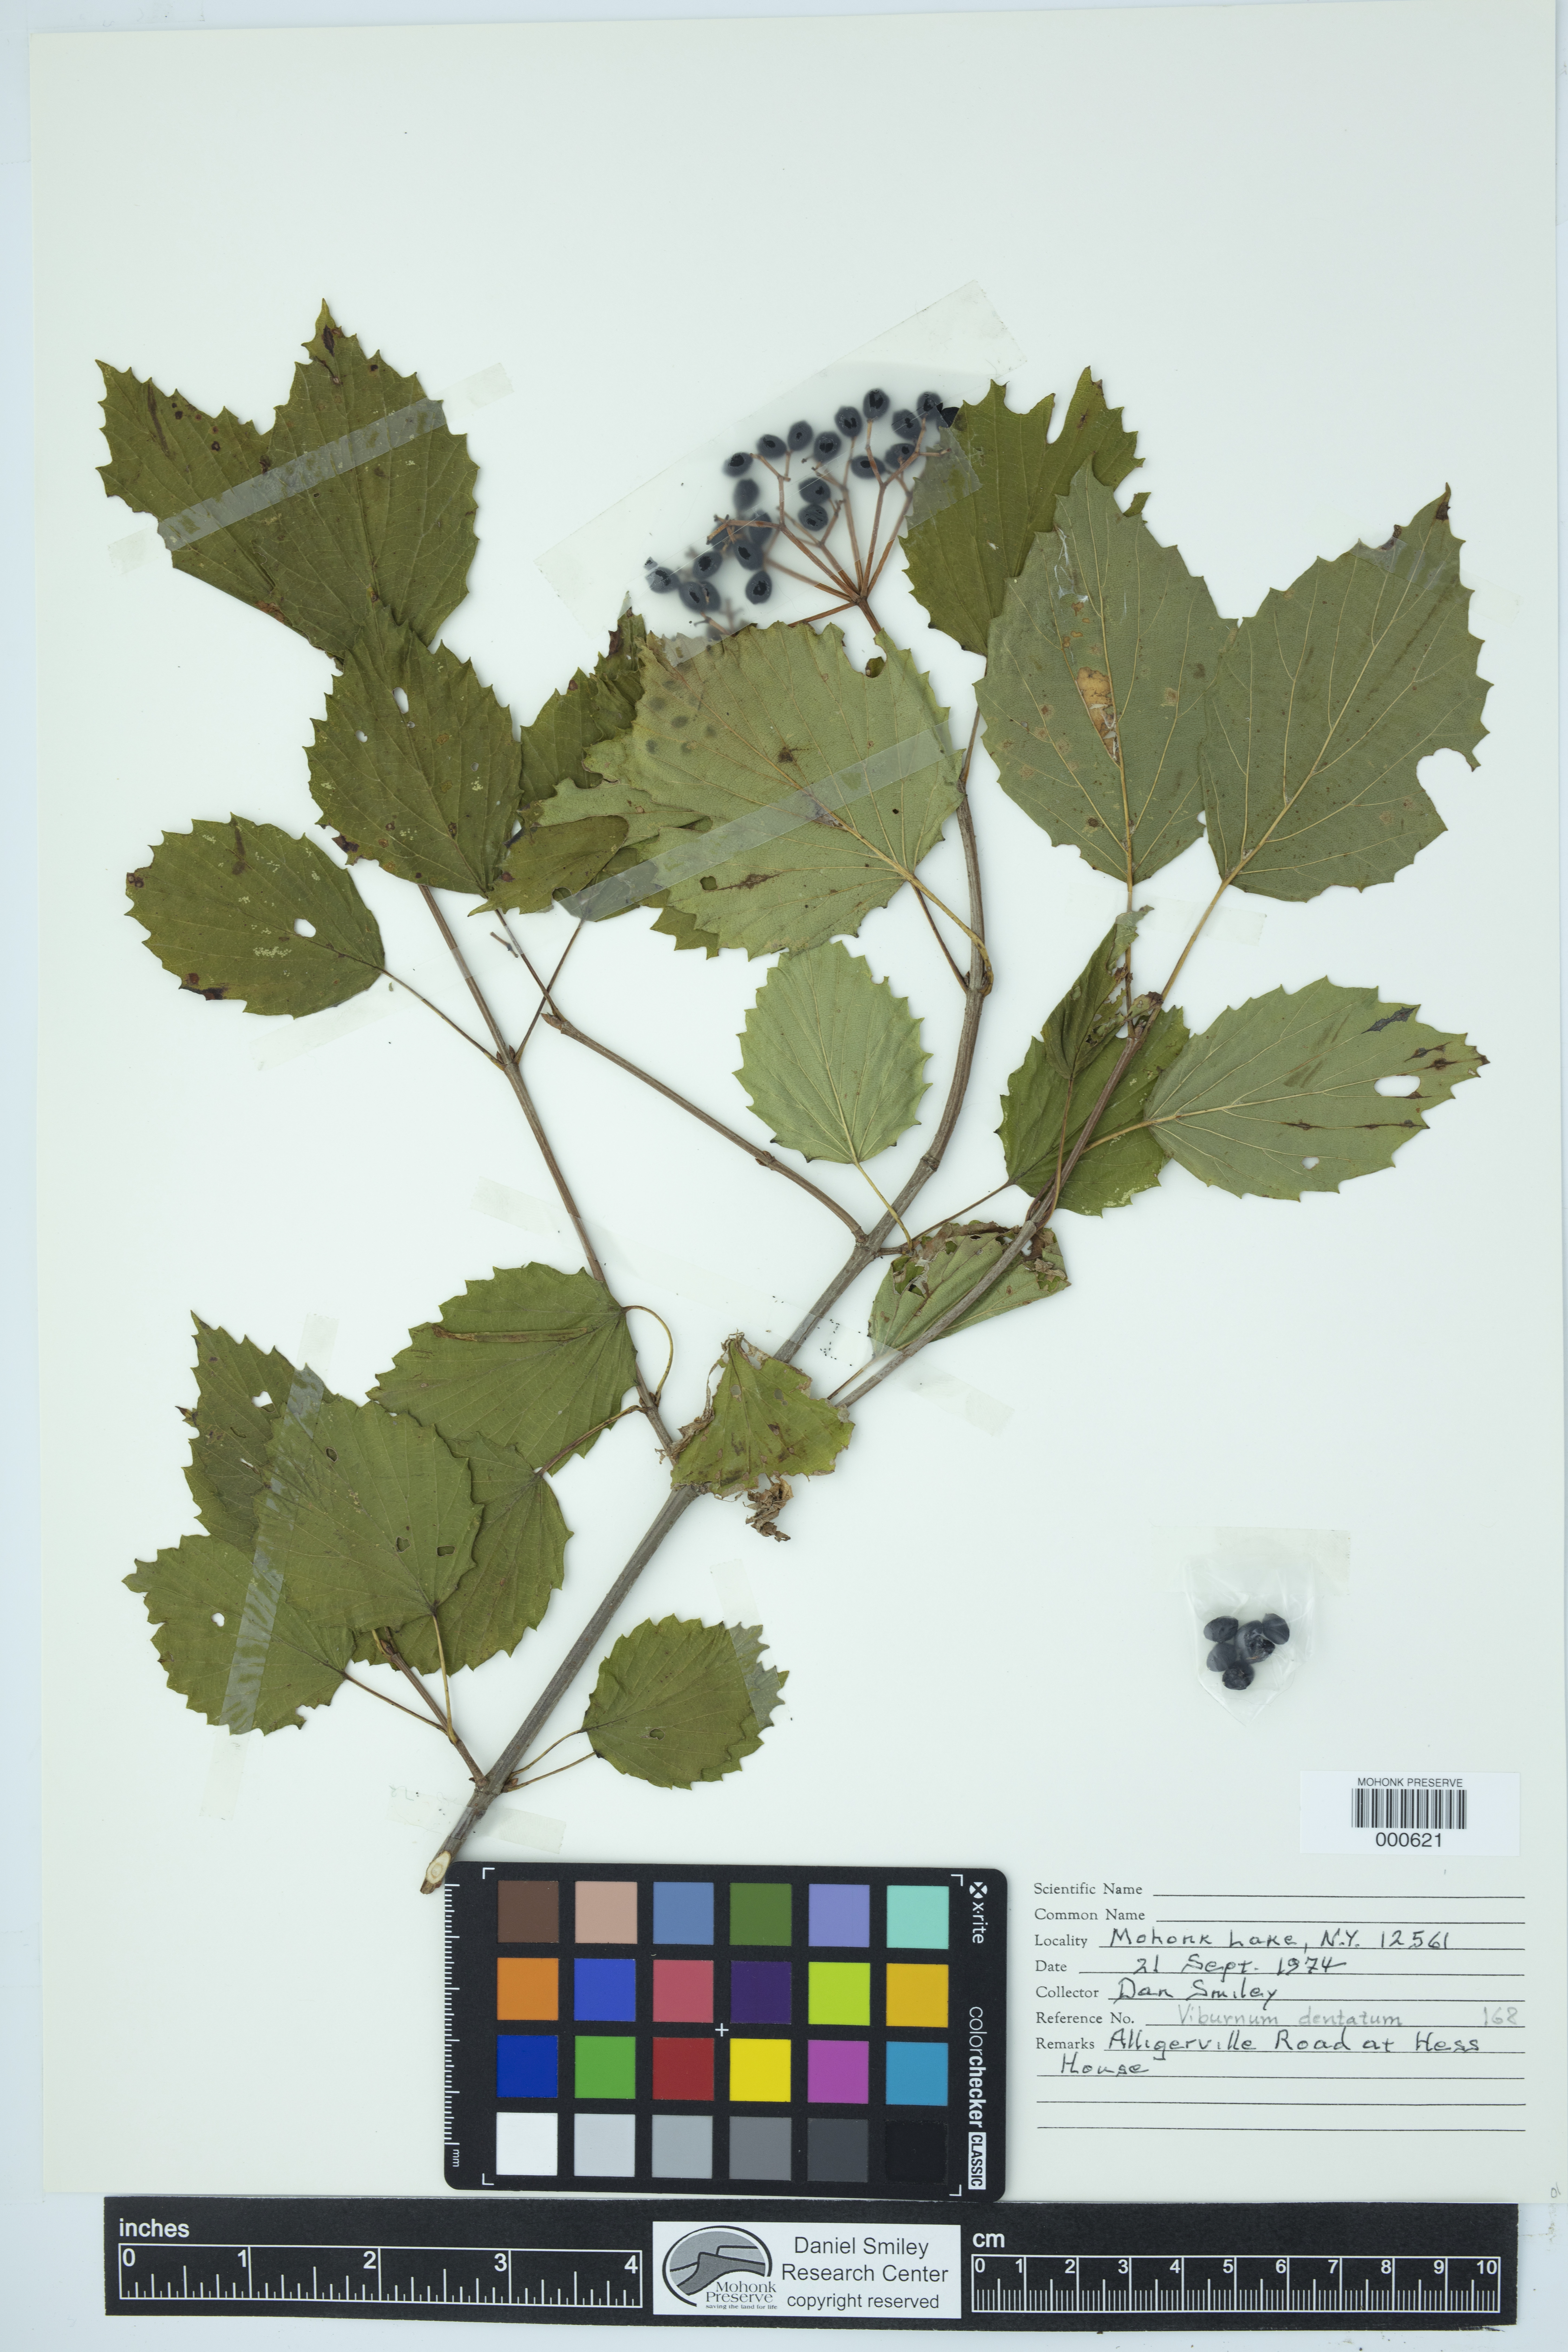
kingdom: Plantae
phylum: Tracheophyta
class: Magnoliopsida
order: Dipsacales
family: Viburnaceae
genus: Viburnum
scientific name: Viburnum dentatum
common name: Arrow-wood
